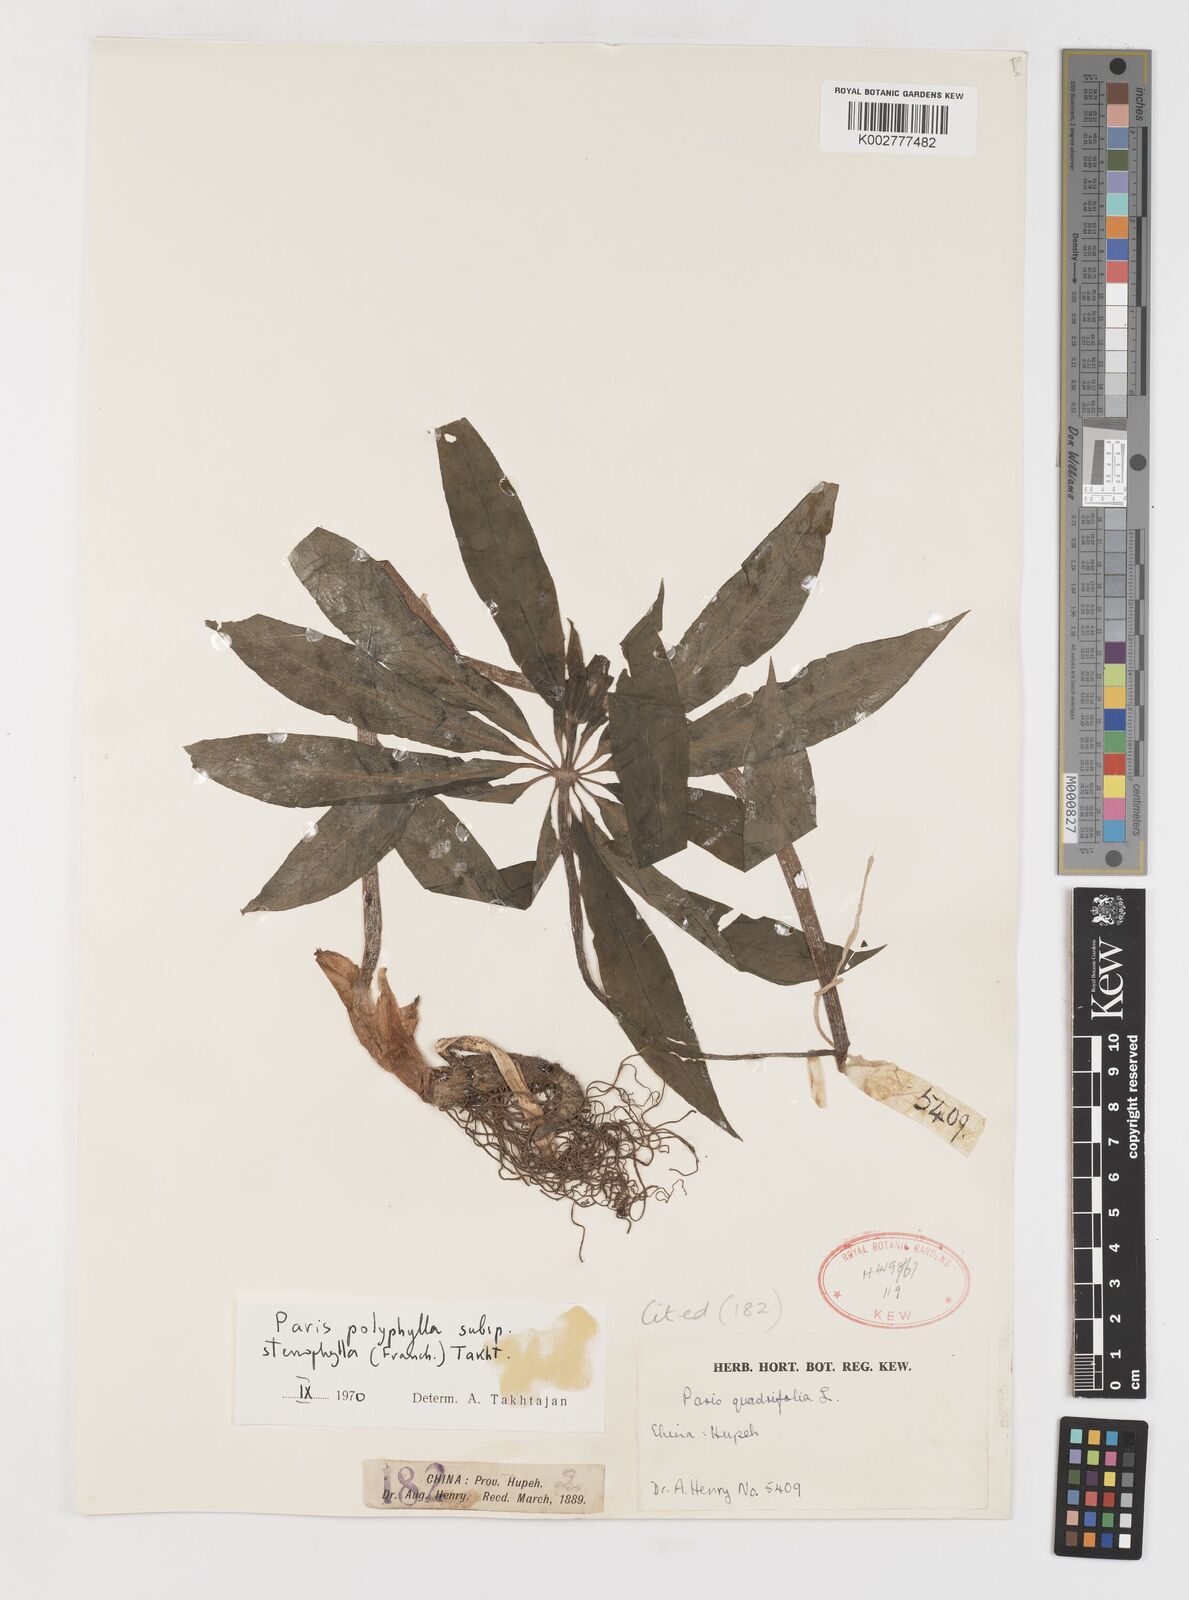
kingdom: Plantae
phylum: Tracheophyta
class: Liliopsida
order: Liliales
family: Melanthiaceae
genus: Paris
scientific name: Paris lancifolia
